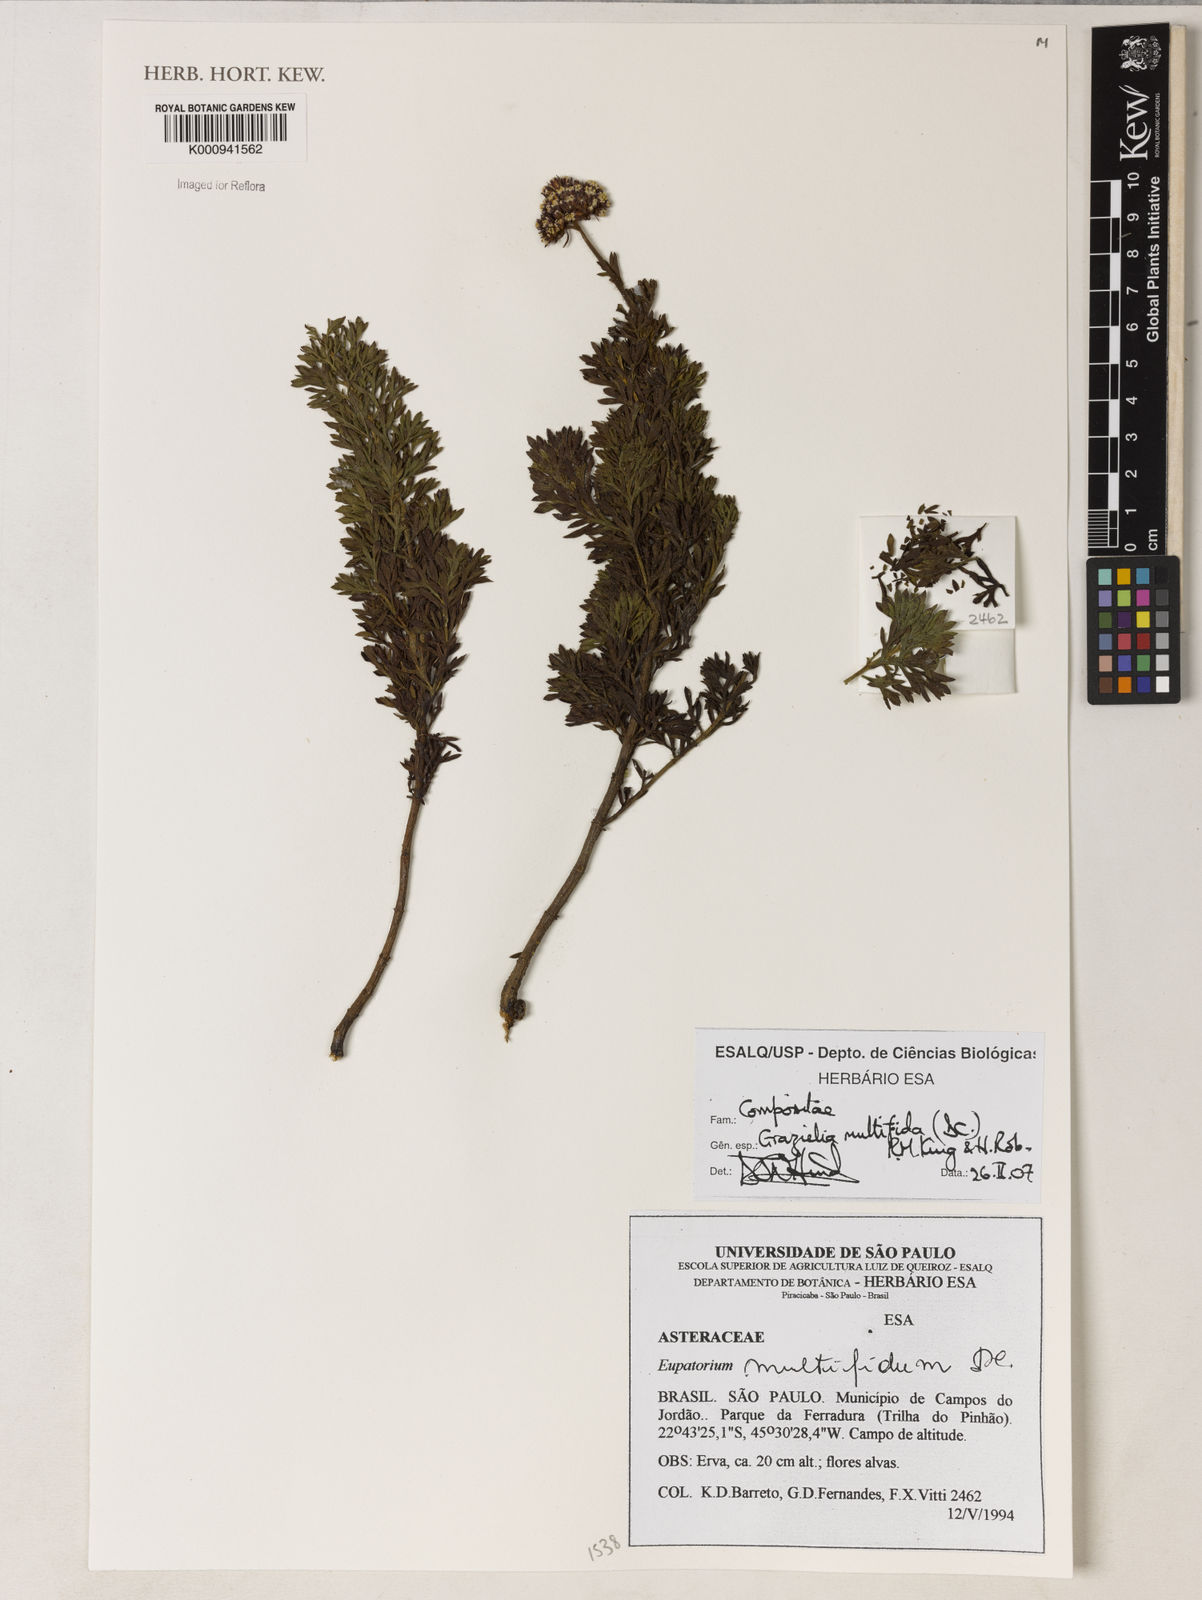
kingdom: Plantae
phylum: Tracheophyta
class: Magnoliopsida
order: Asterales
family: Asteraceae
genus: Grazielia
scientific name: Grazielia multifida
